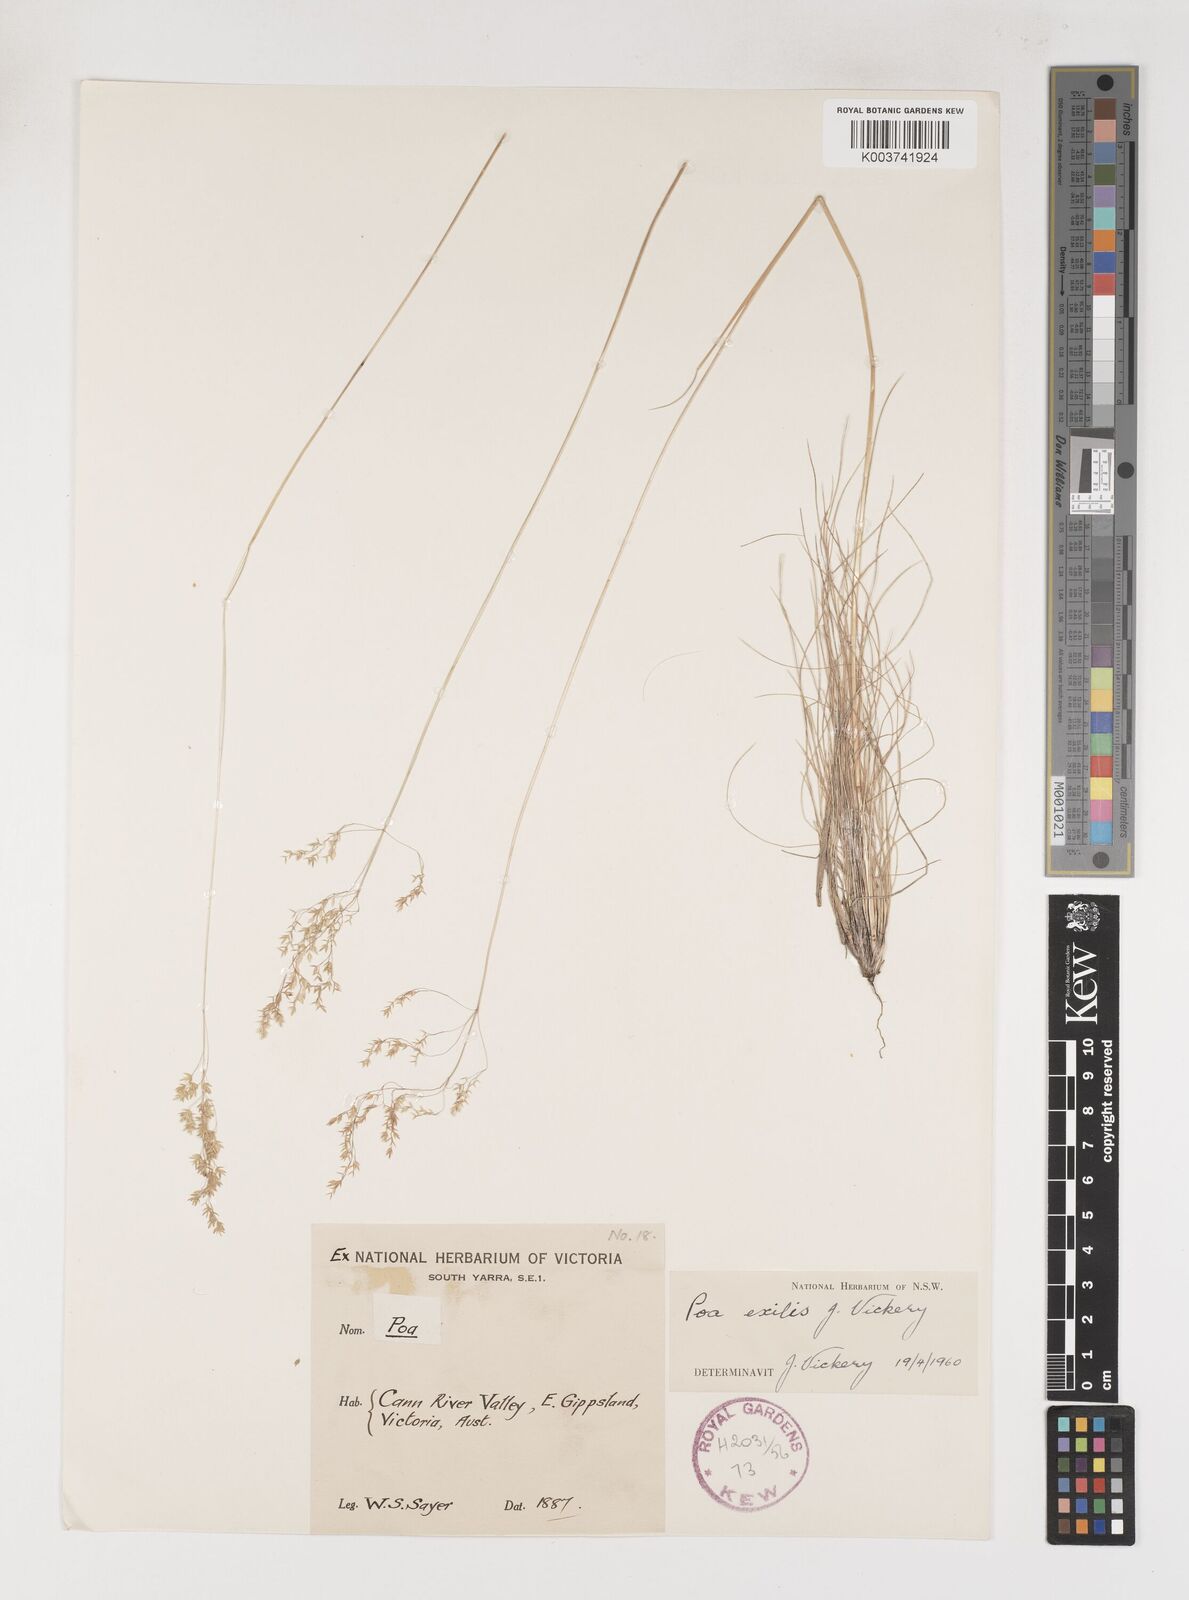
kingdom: Plantae
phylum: Tracheophyta
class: Liliopsida
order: Poales
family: Poaceae
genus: Poa
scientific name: Poa meionectes
